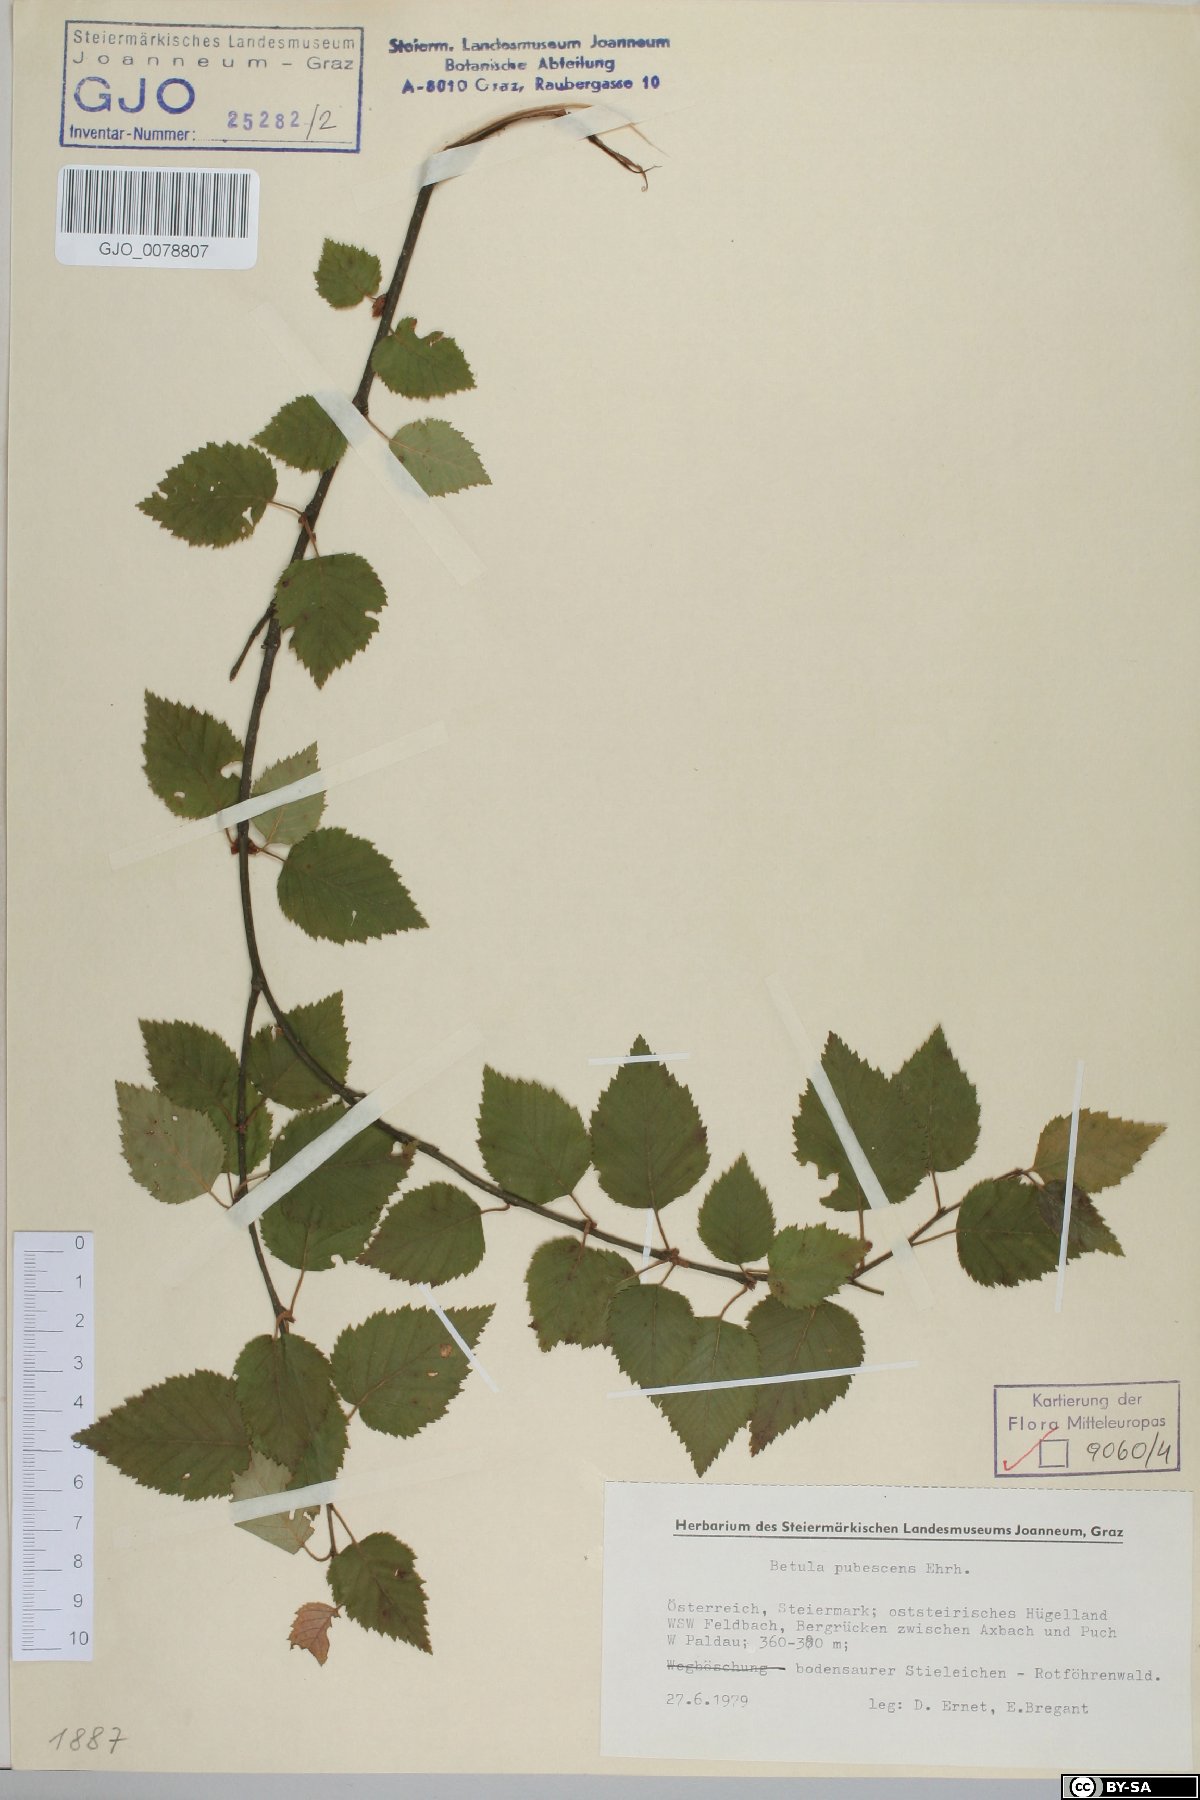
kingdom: Plantae
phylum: Tracheophyta
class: Magnoliopsida
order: Fagales
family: Betulaceae
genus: Betula
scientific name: Betula pubescens
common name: Downy birch
